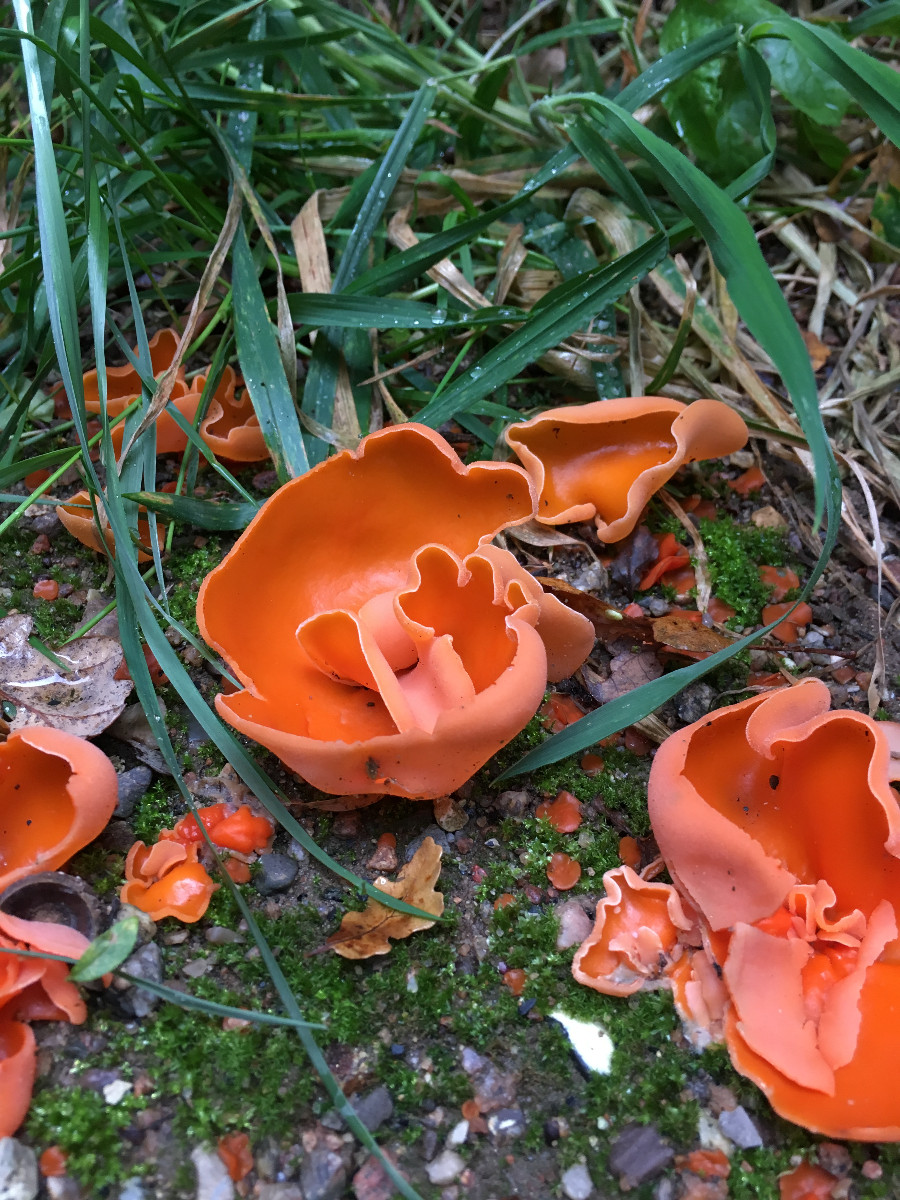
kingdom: Fungi
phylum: Ascomycota
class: Pezizomycetes
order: Pezizales
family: Pyronemataceae
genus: Aleuria
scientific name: Aleuria aurantia
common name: almindelig orangebæger
